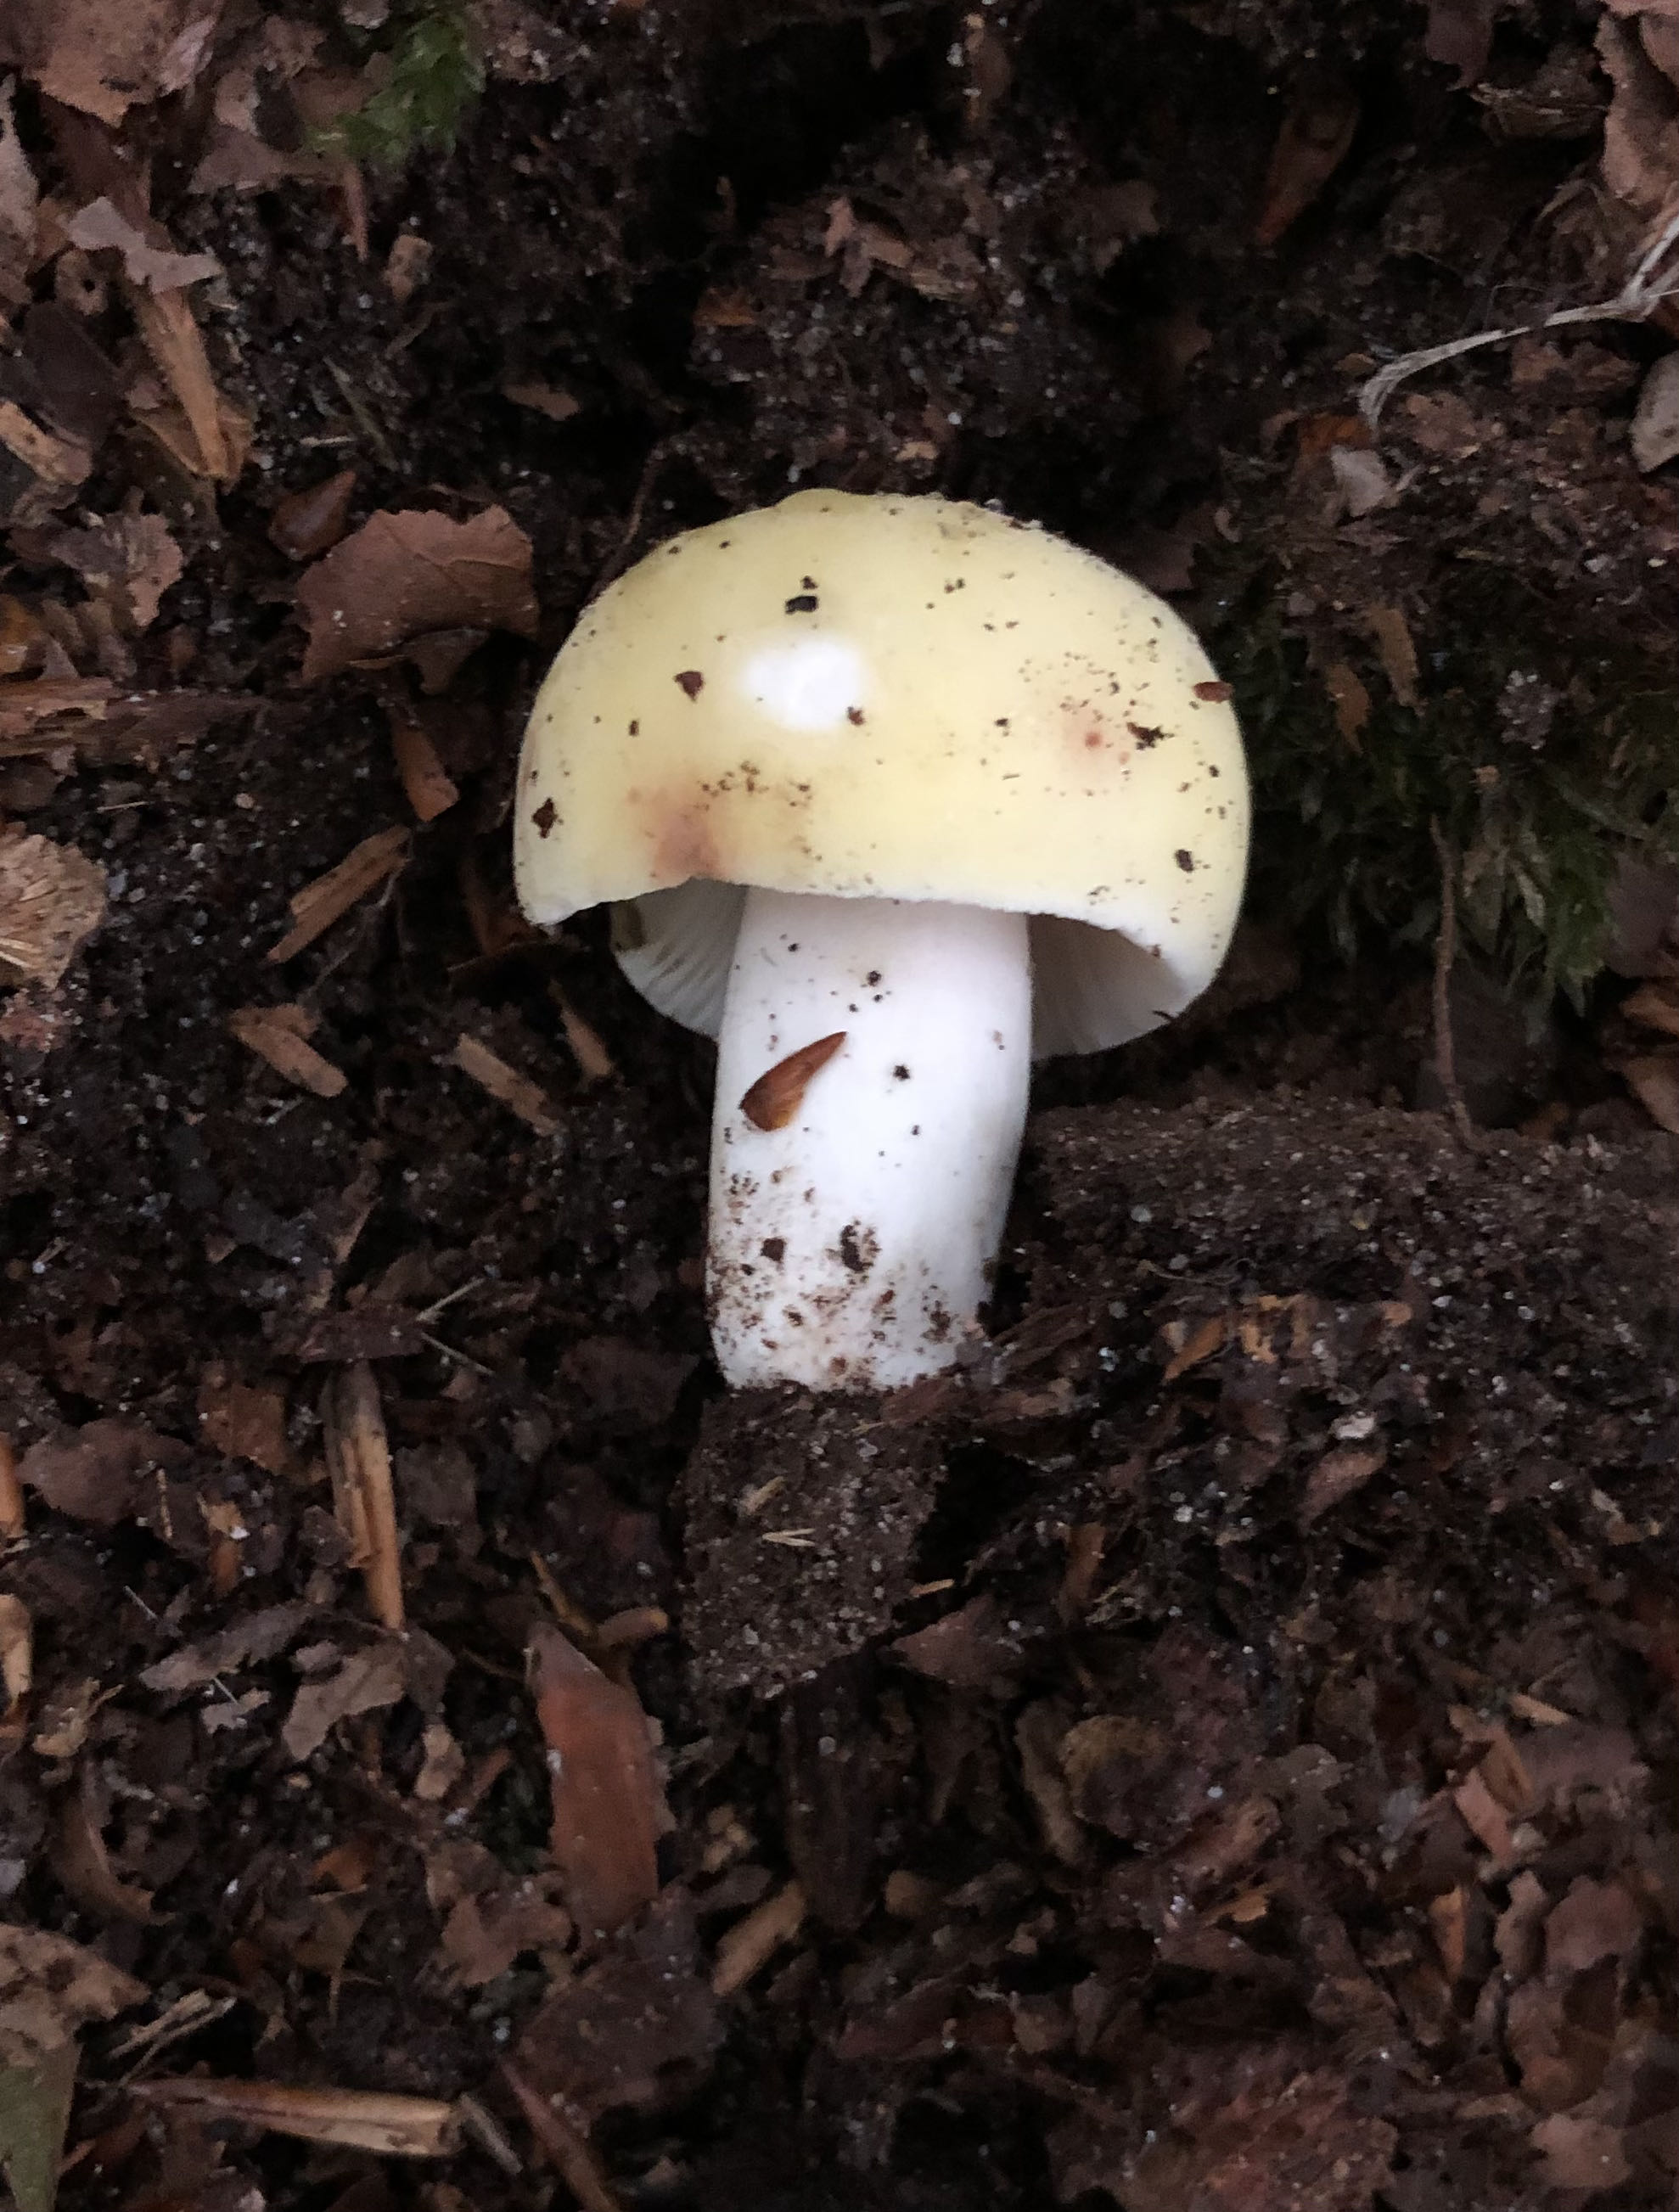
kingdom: Fungi
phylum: Basidiomycota
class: Agaricomycetes
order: Russulales
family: Russulaceae
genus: Russula
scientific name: Russula violeipes
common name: ferskengul skørhat
